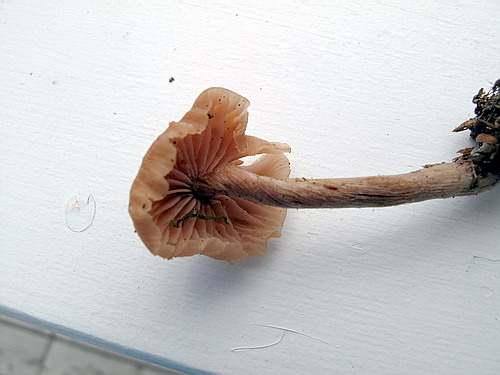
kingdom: Fungi
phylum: Basidiomycota
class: Agaricomycetes
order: Agaricales
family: Hydnangiaceae
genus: Laccaria
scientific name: Laccaria proxima
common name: stor ametysthat
